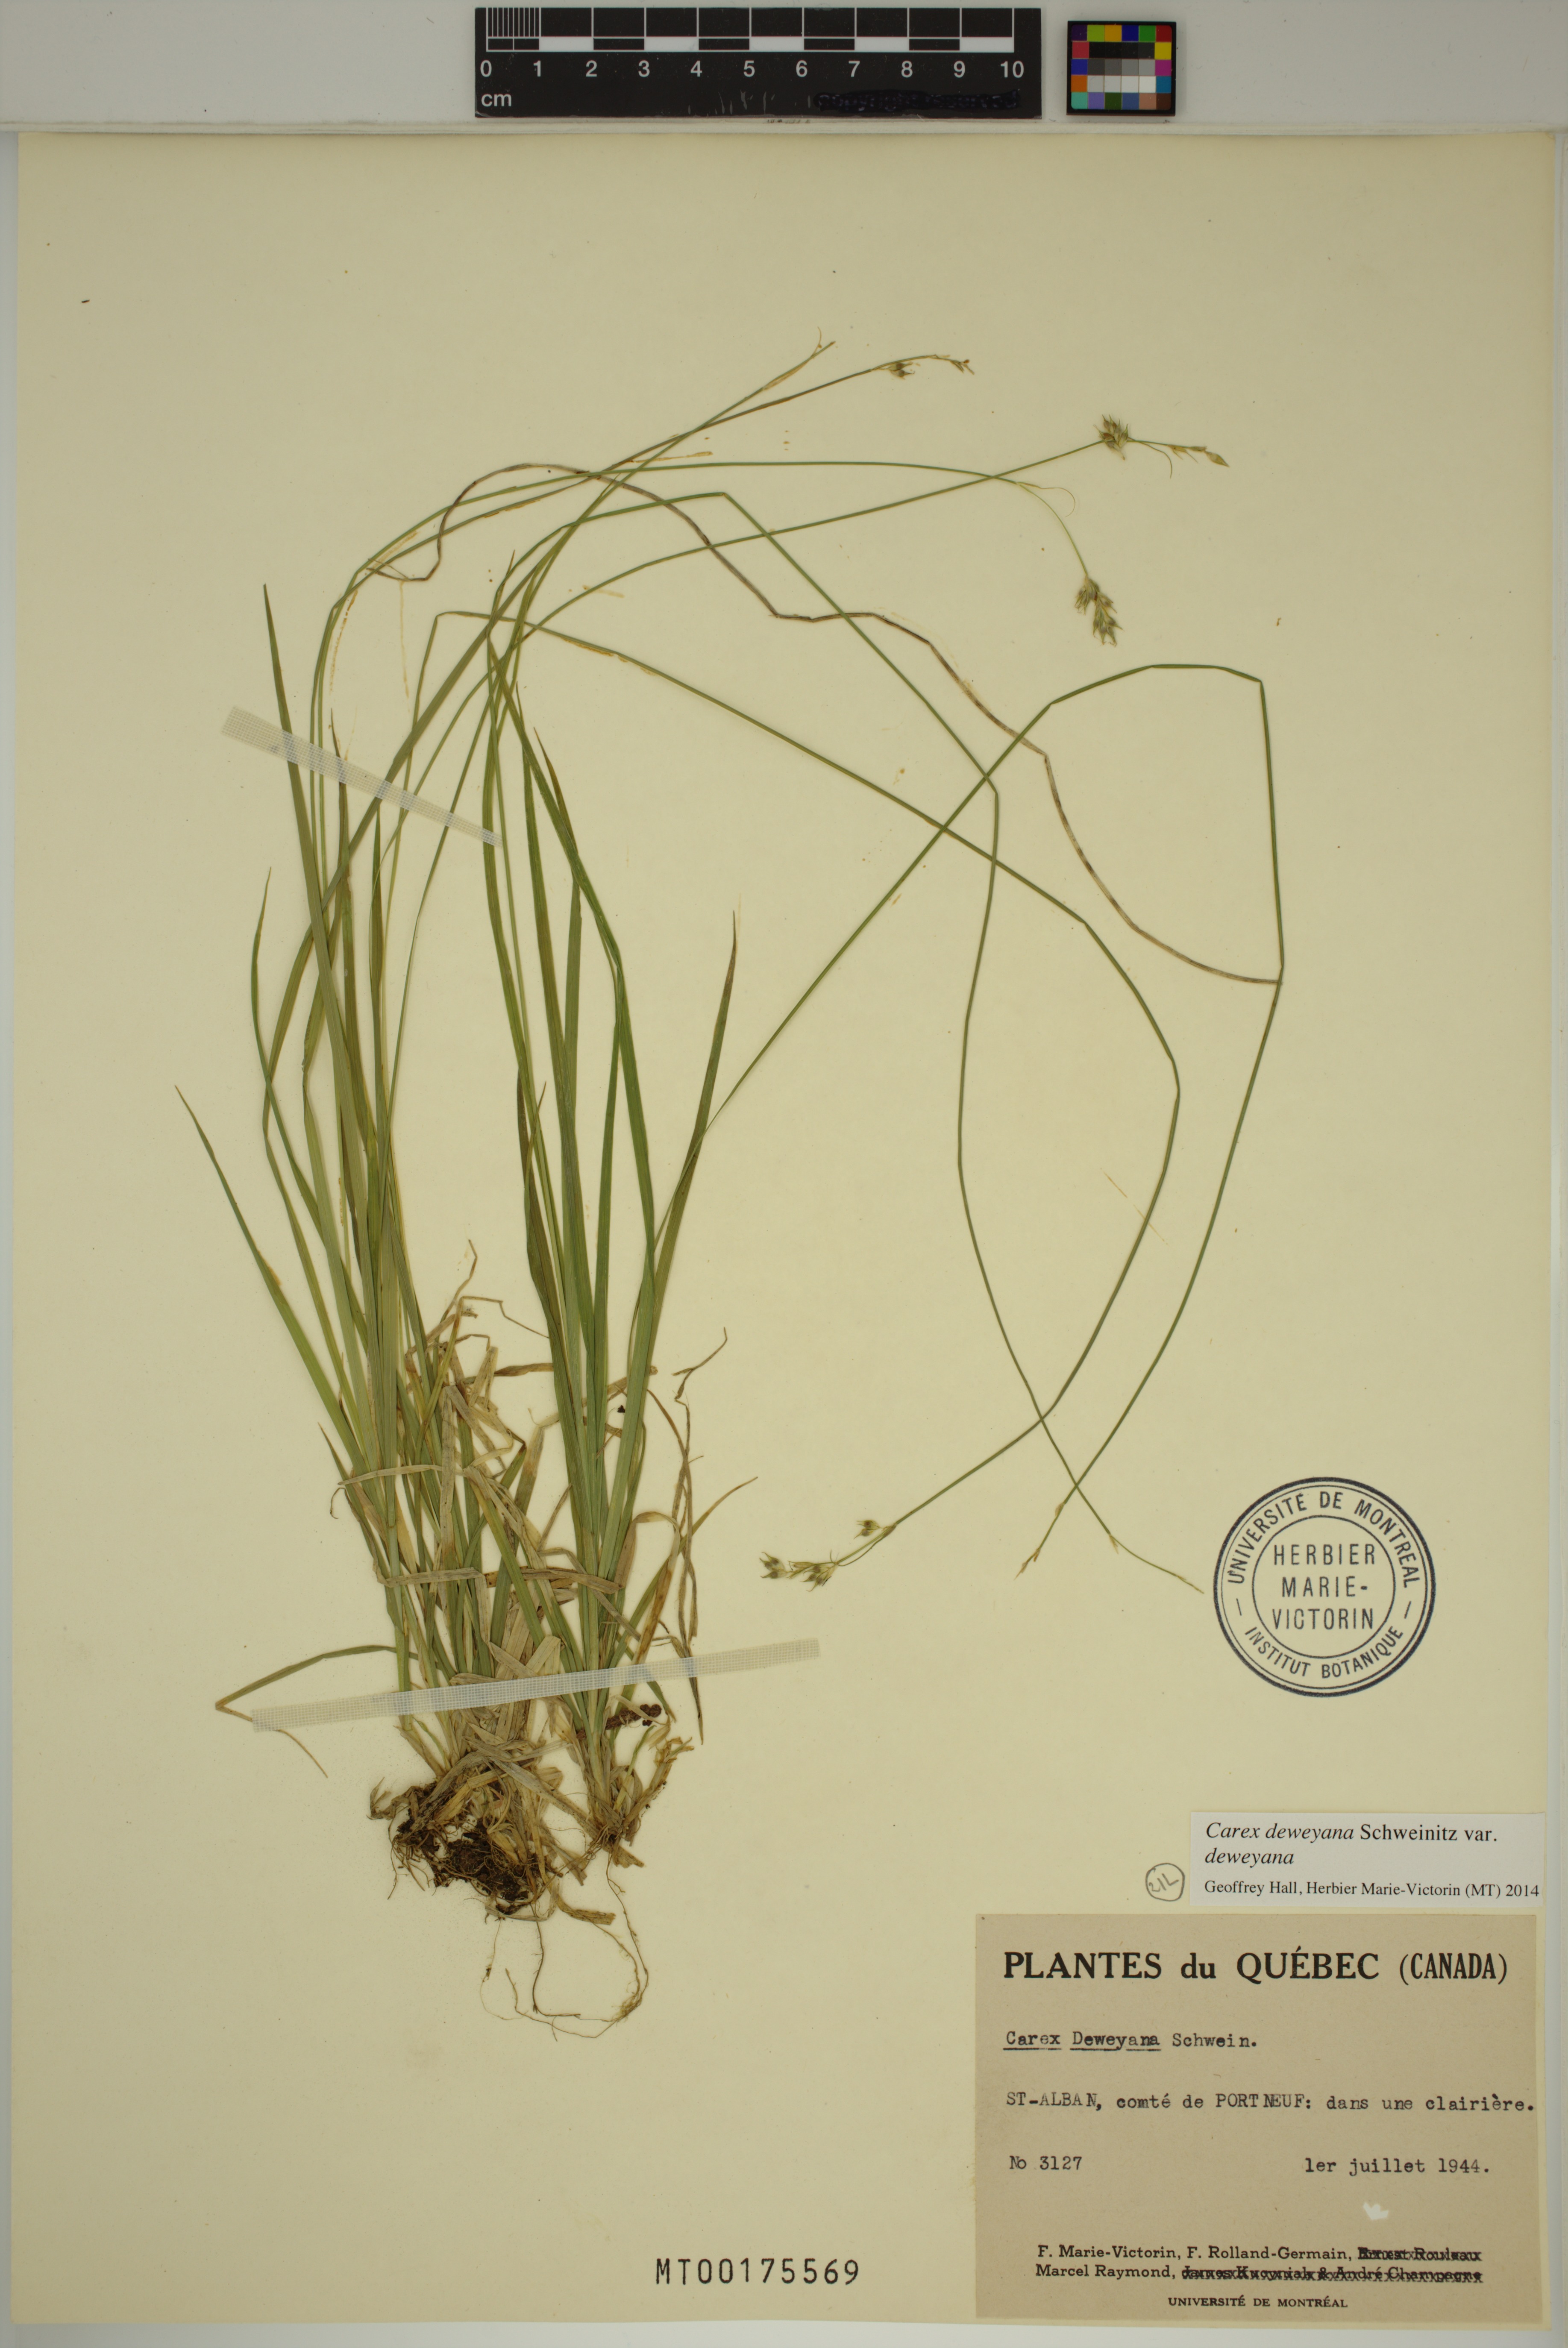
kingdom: Plantae
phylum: Tracheophyta
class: Liliopsida
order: Poales
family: Cyperaceae
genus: Carex
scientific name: Carex deweyana
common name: Dewey's sedge
